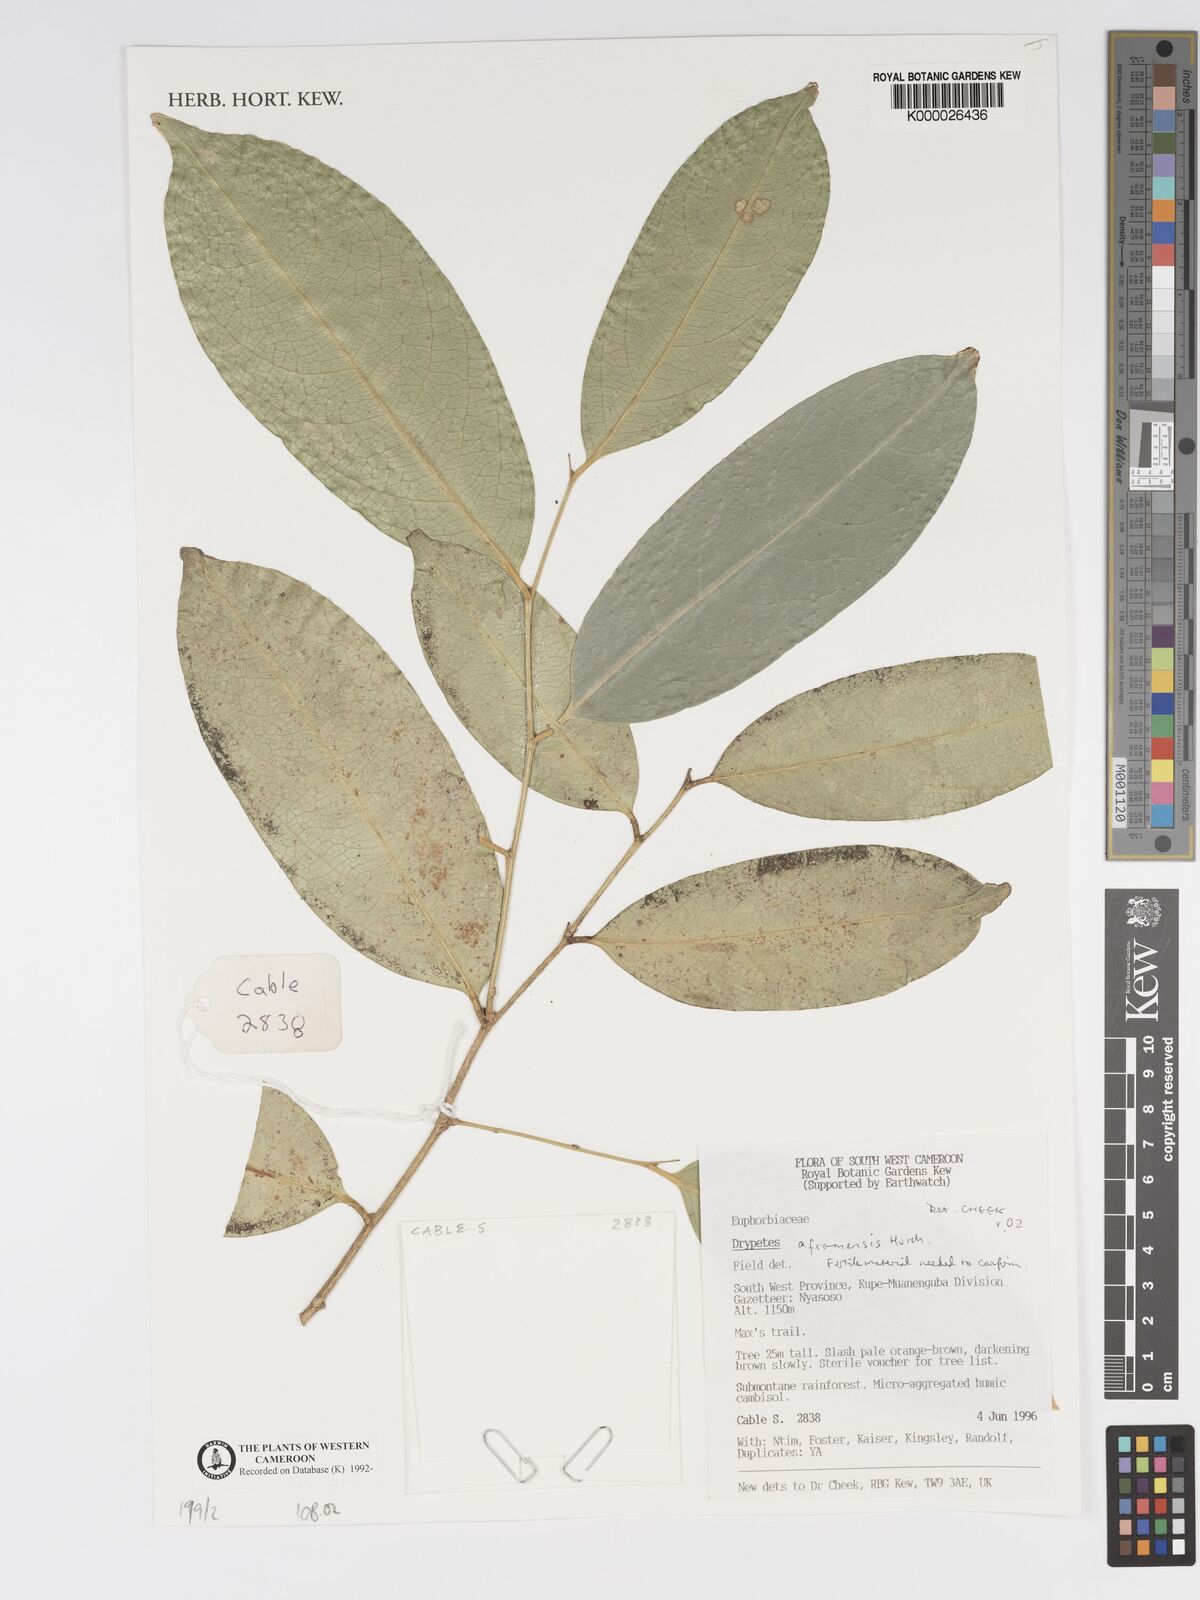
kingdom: Plantae
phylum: Tracheophyta
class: Magnoliopsida
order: Malpighiales
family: Putranjivaceae
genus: Drypetes
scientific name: Drypetes aframensis
